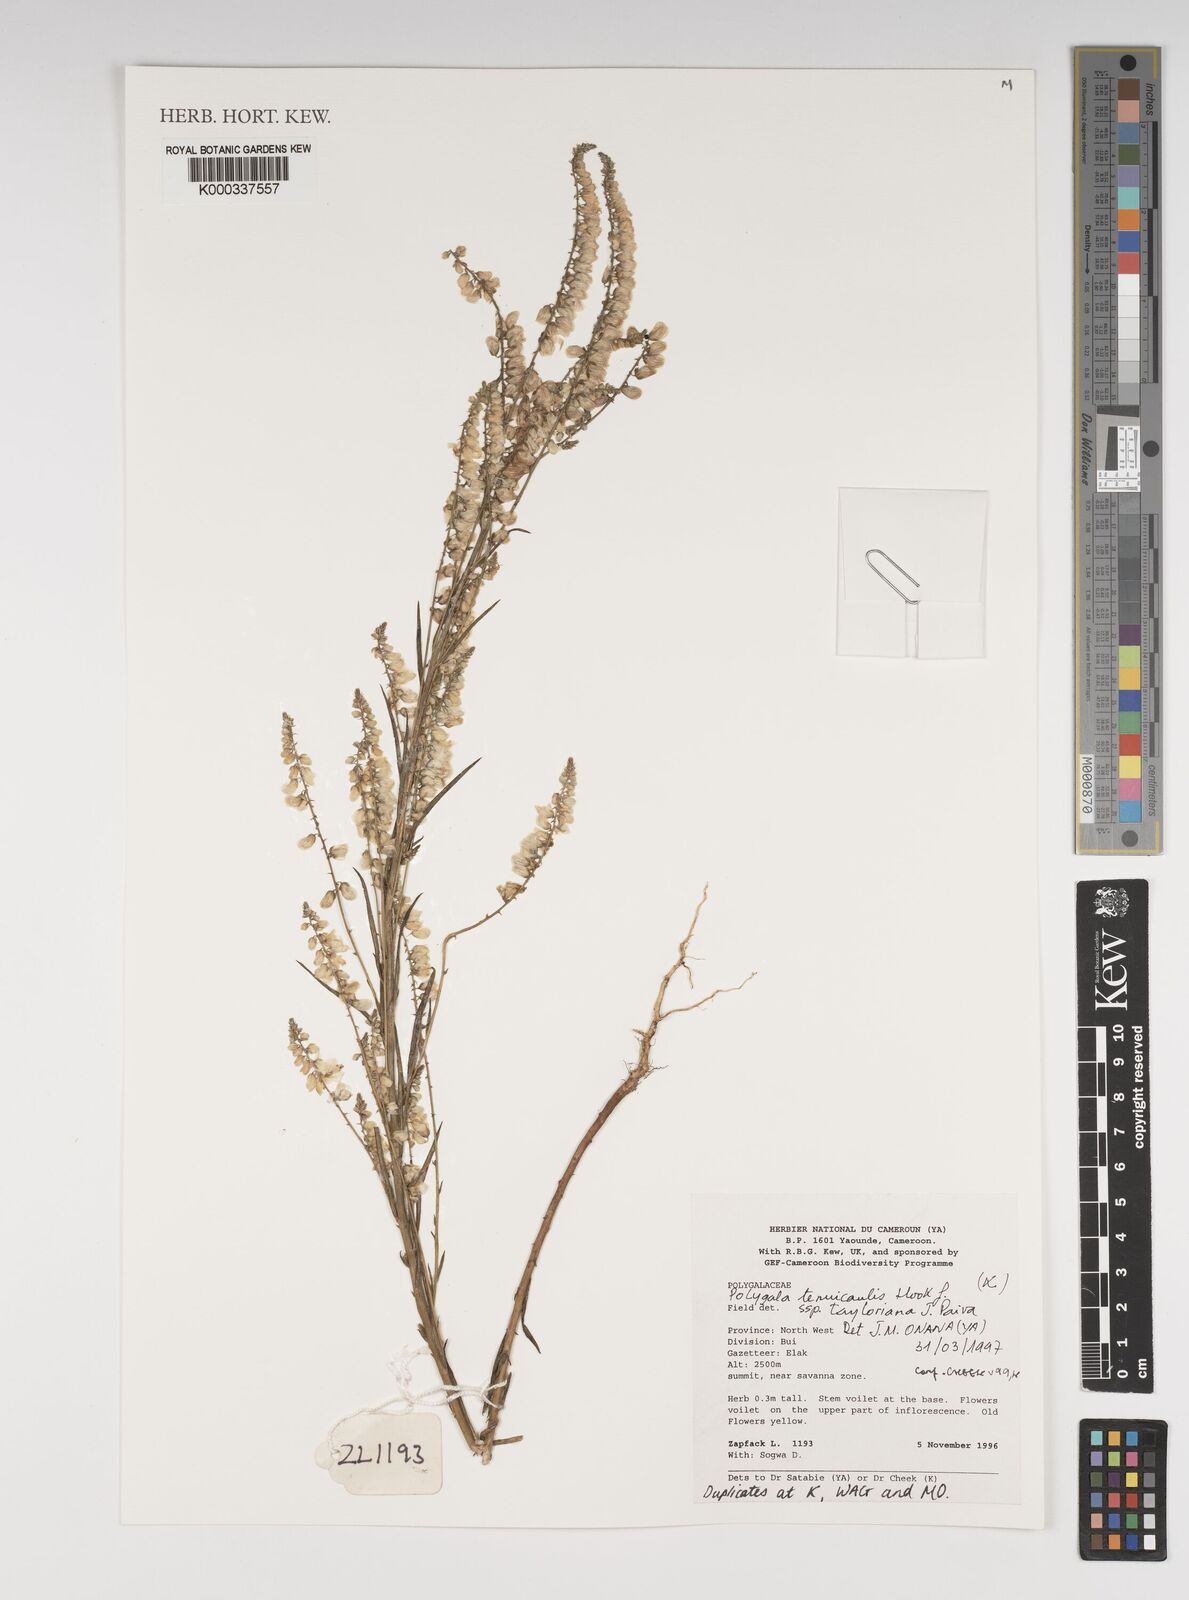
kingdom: Plantae
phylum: Tracheophyta
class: Magnoliopsida
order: Fabales
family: Polygalaceae
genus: Polygala
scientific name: Polygala tenuicaulis
